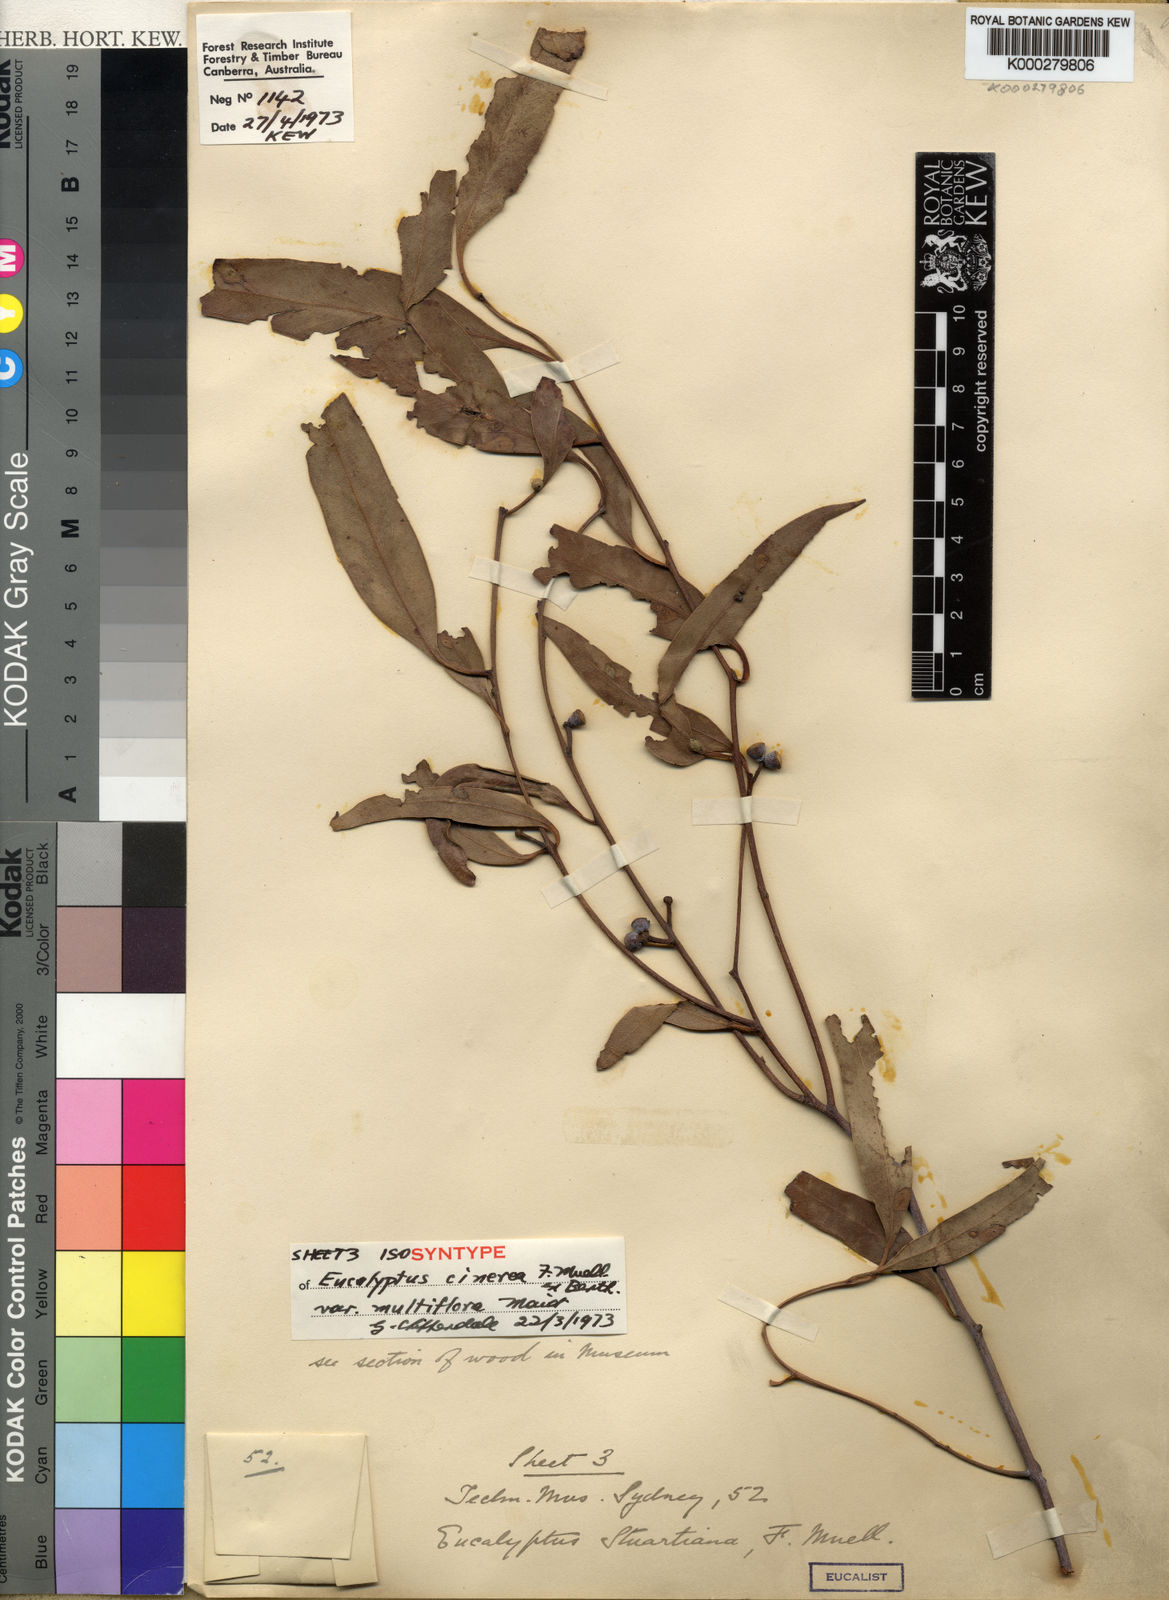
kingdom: Plantae
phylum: Tracheophyta
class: Magnoliopsida
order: Myrtales
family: Myrtaceae
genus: Eucalyptus
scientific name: Eucalyptus cephalocarpa
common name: Mealy stringybark
